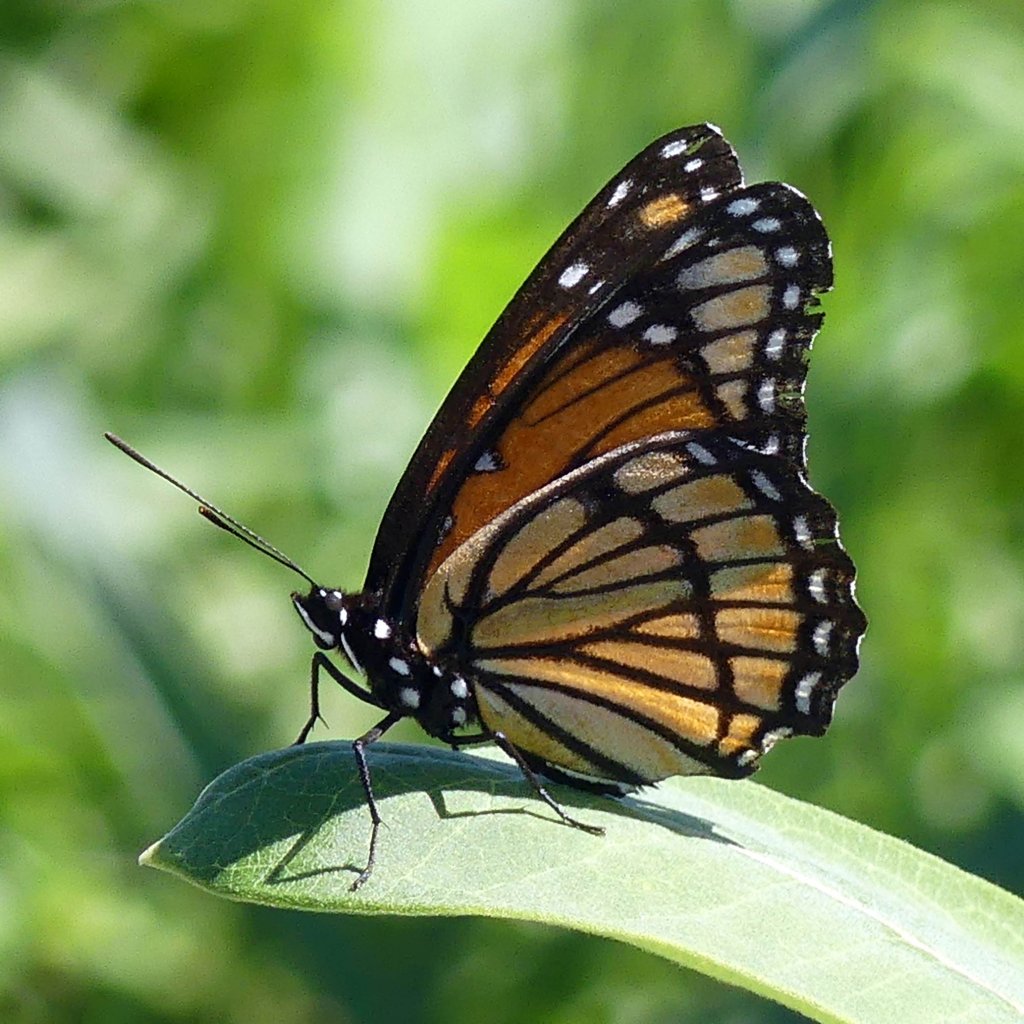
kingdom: Animalia
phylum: Arthropoda
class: Insecta
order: Lepidoptera
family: Nymphalidae
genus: Limenitis
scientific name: Limenitis archippus
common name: Viceroy
